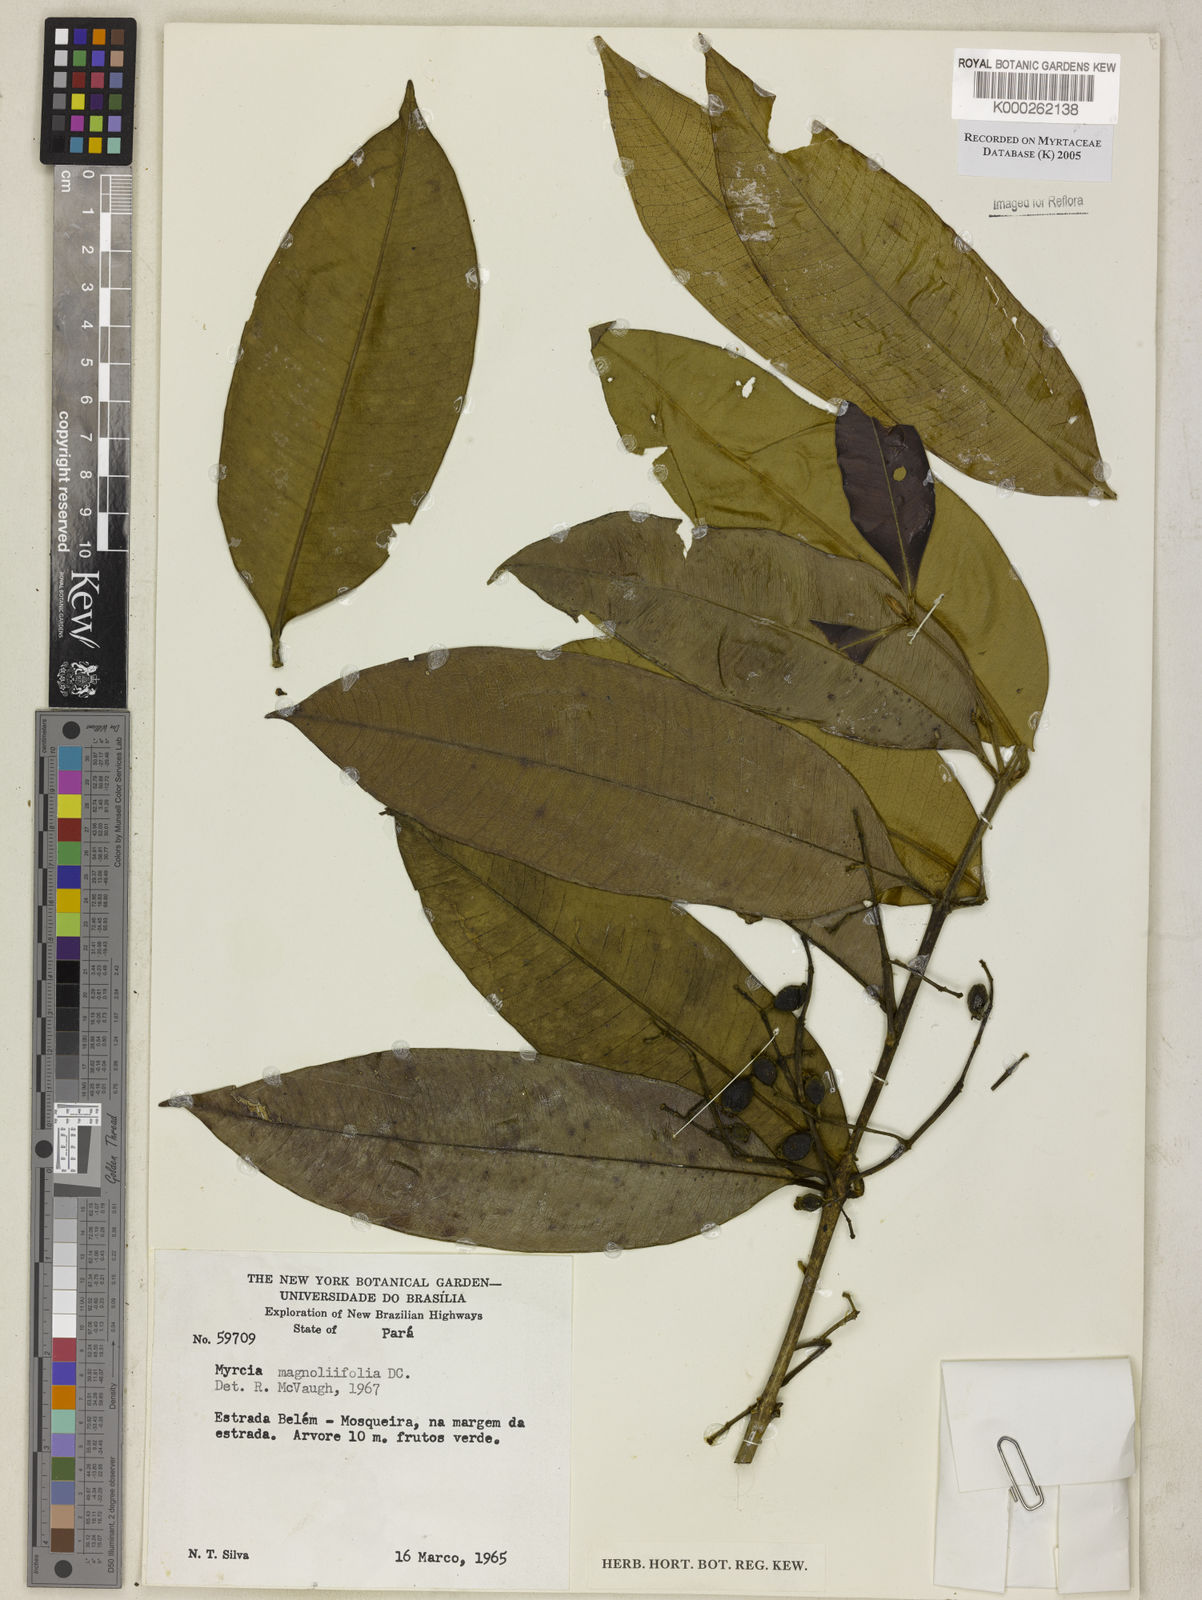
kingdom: Plantae
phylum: Tracheophyta
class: Magnoliopsida
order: Myrtales
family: Myrtaceae
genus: Myrcia
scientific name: Myrcia splendens
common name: Surinam cherry
